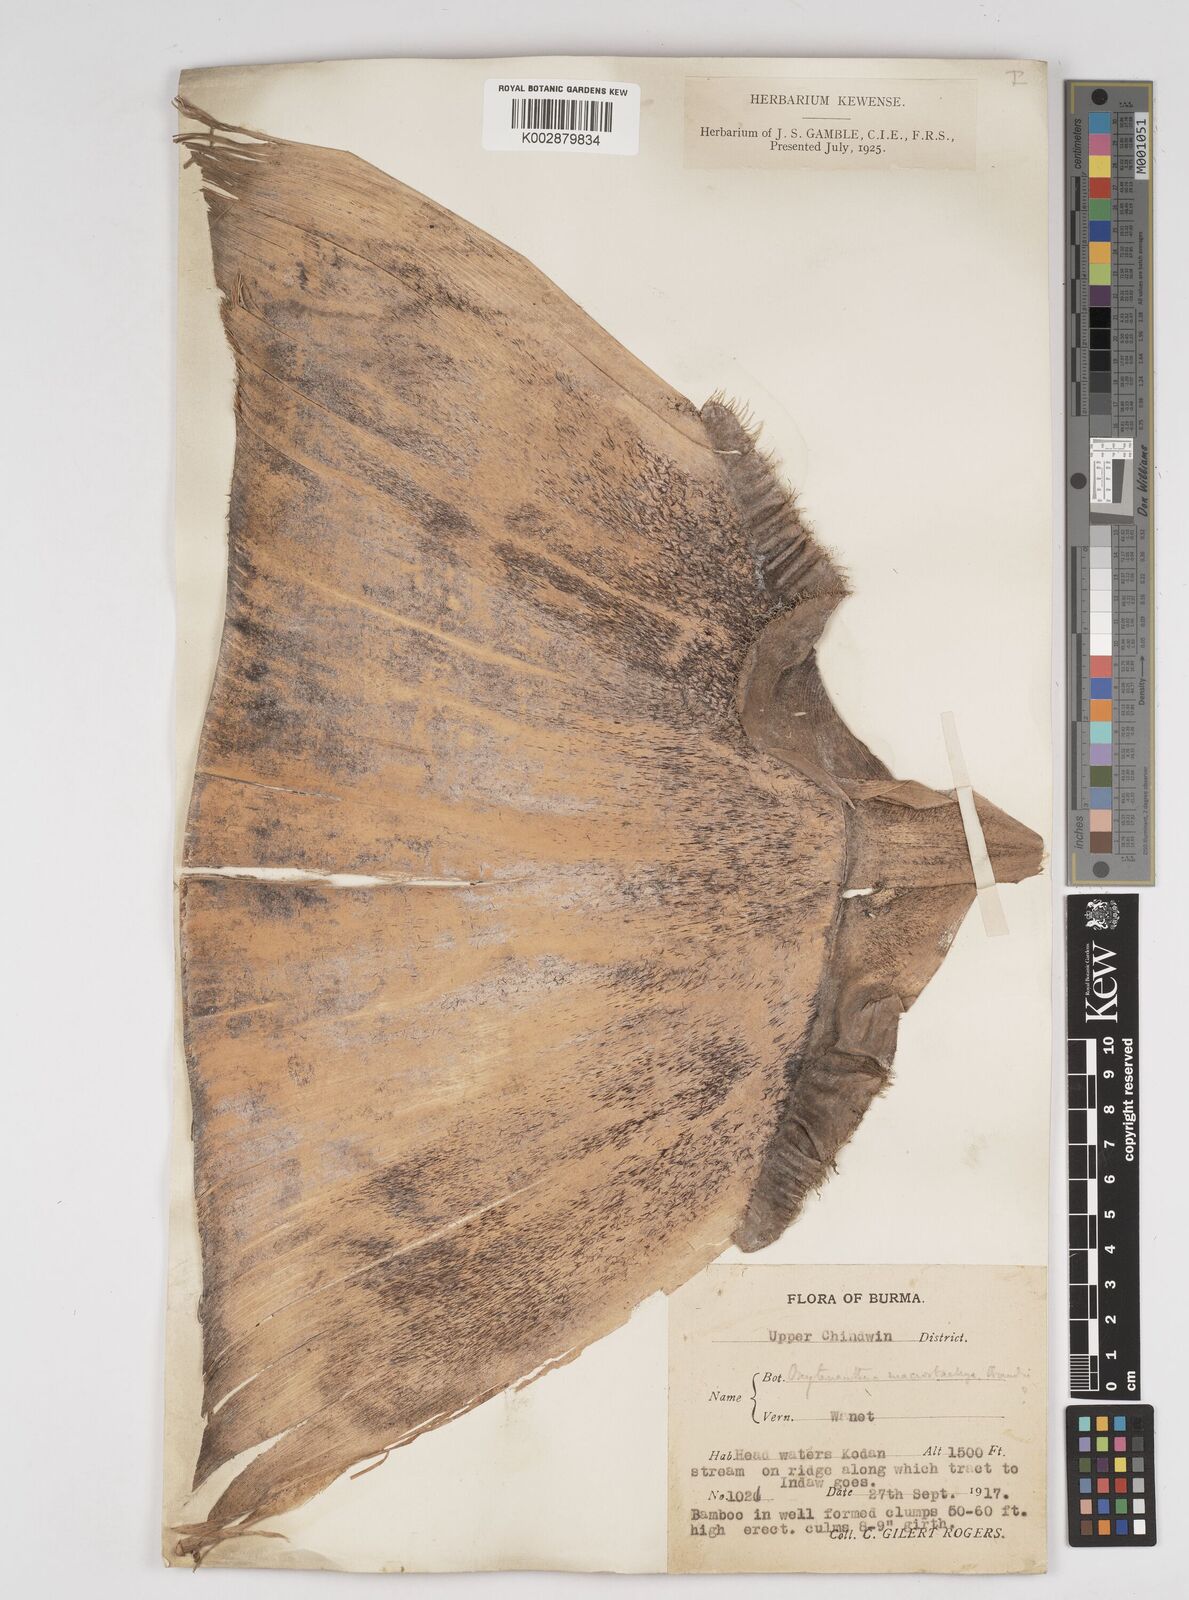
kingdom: Plantae
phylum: Tracheophyta
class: Liliopsida
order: Poales
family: Poaceae
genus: Gigantochloa
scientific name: Gigantochloa macrostachya
